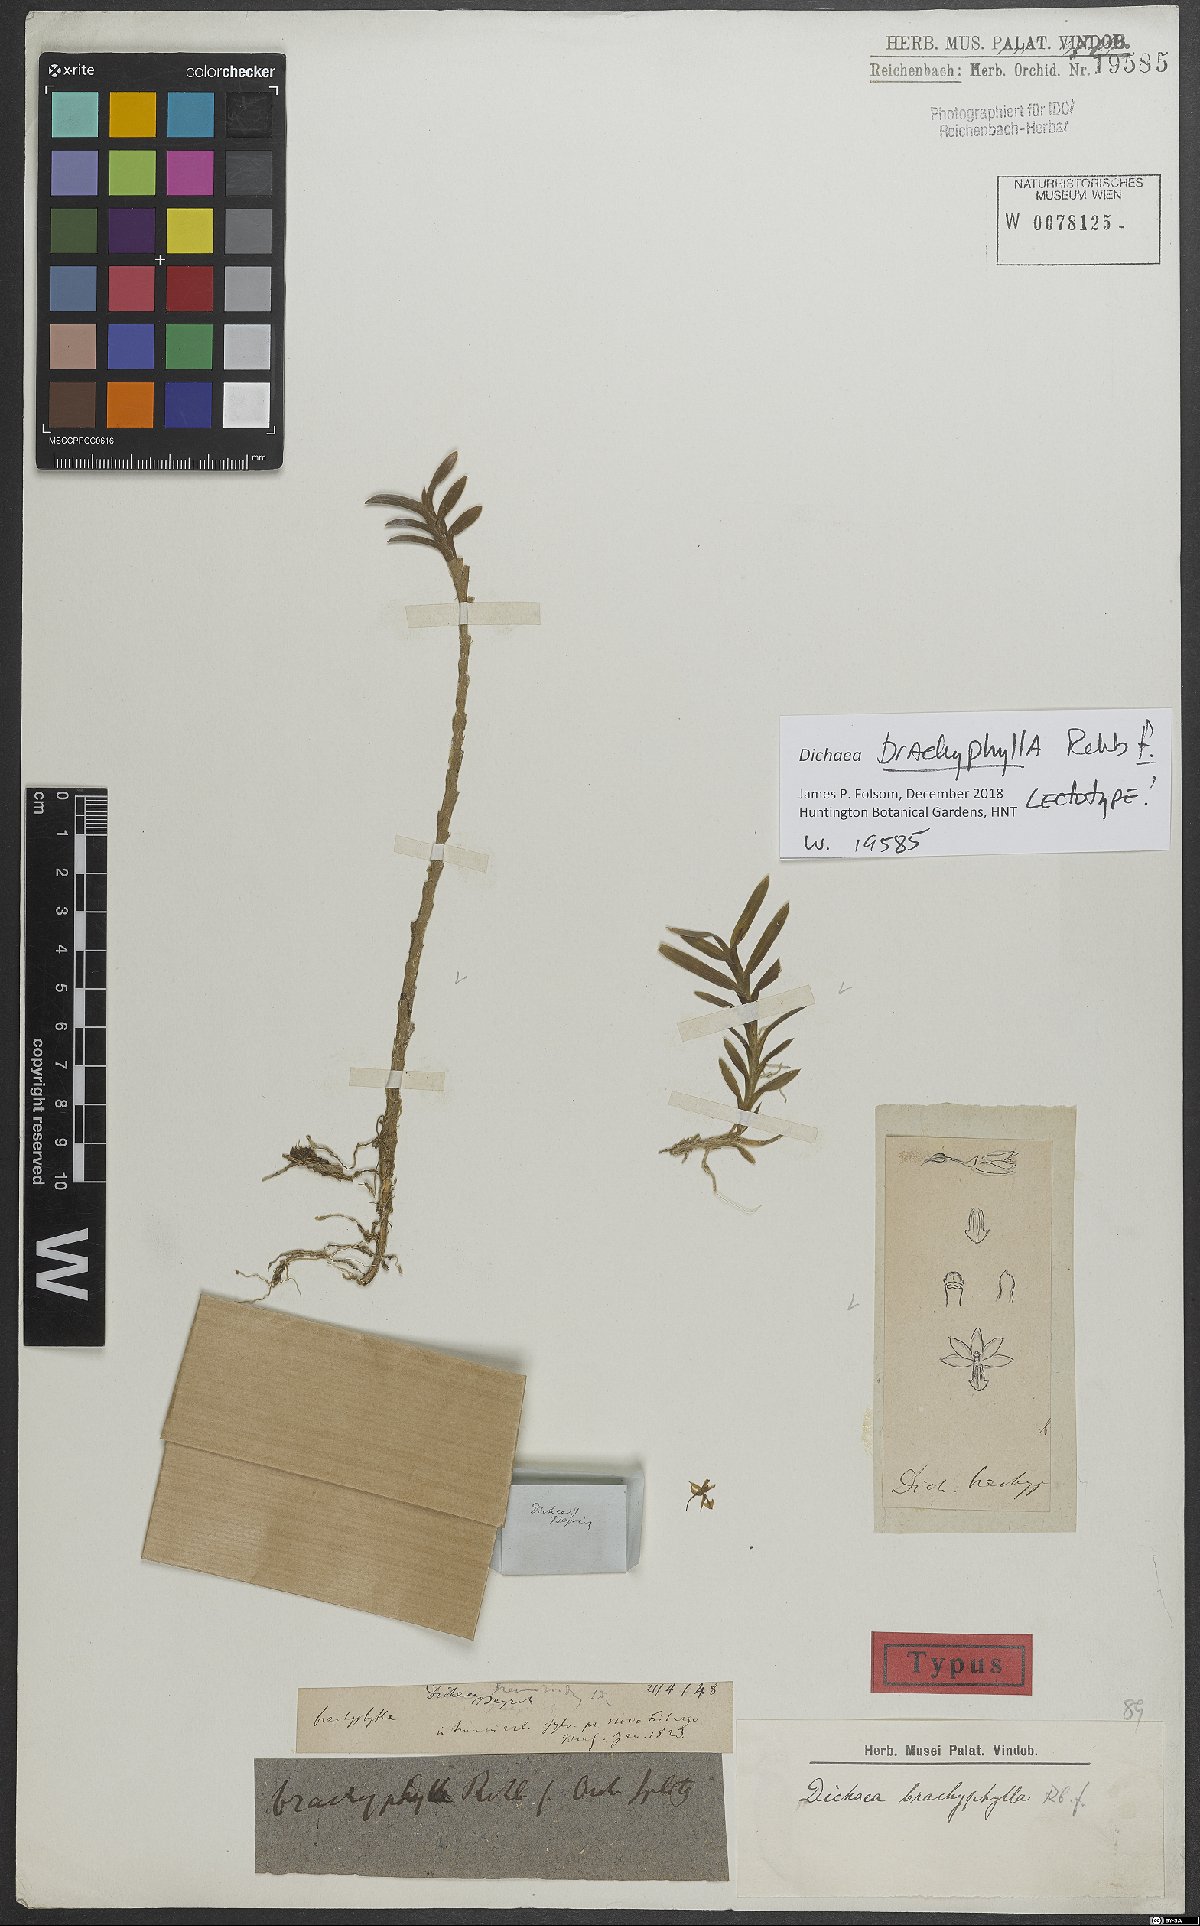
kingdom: Plantae
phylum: Tracheophyta
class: Liliopsida
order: Asparagales
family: Orchidaceae
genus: Dichaea
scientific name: Dichaea brachyphylla
